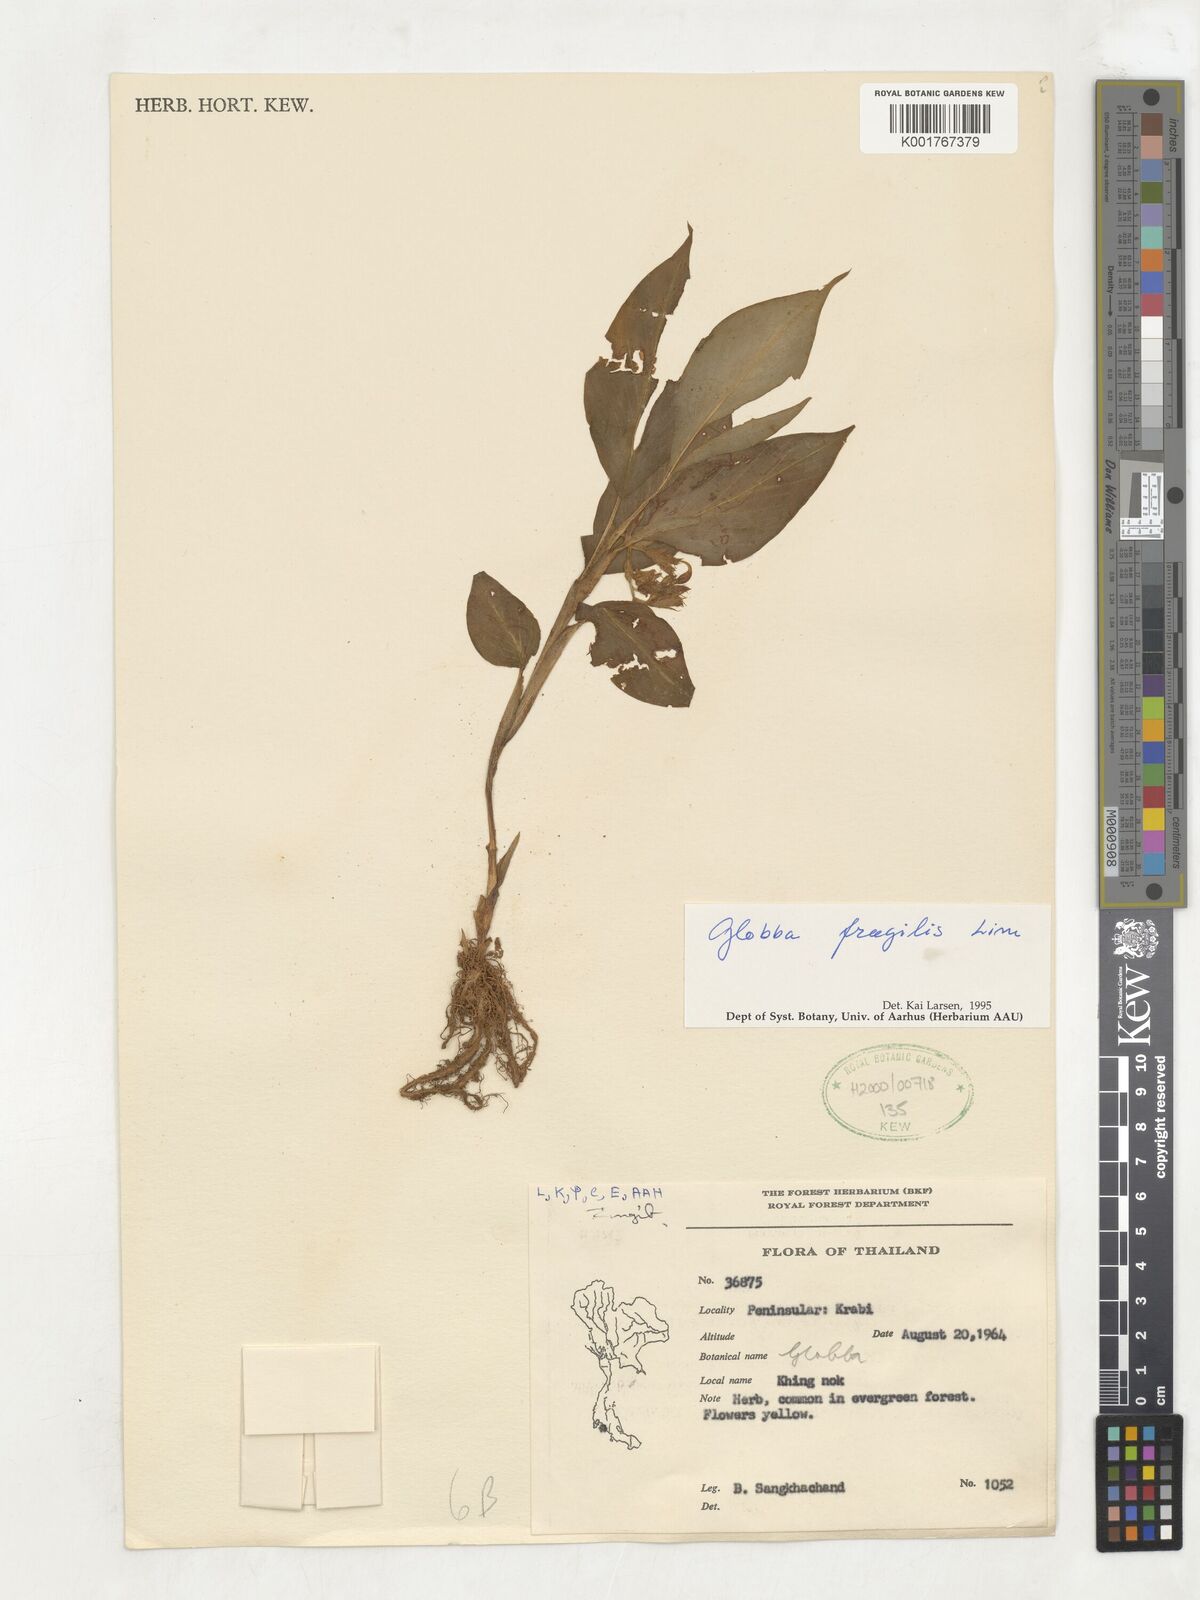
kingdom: Plantae
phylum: Tracheophyta
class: Liliopsida
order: Zingiberales
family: Zingiberaceae
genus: Globba
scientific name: Globba fragilis
